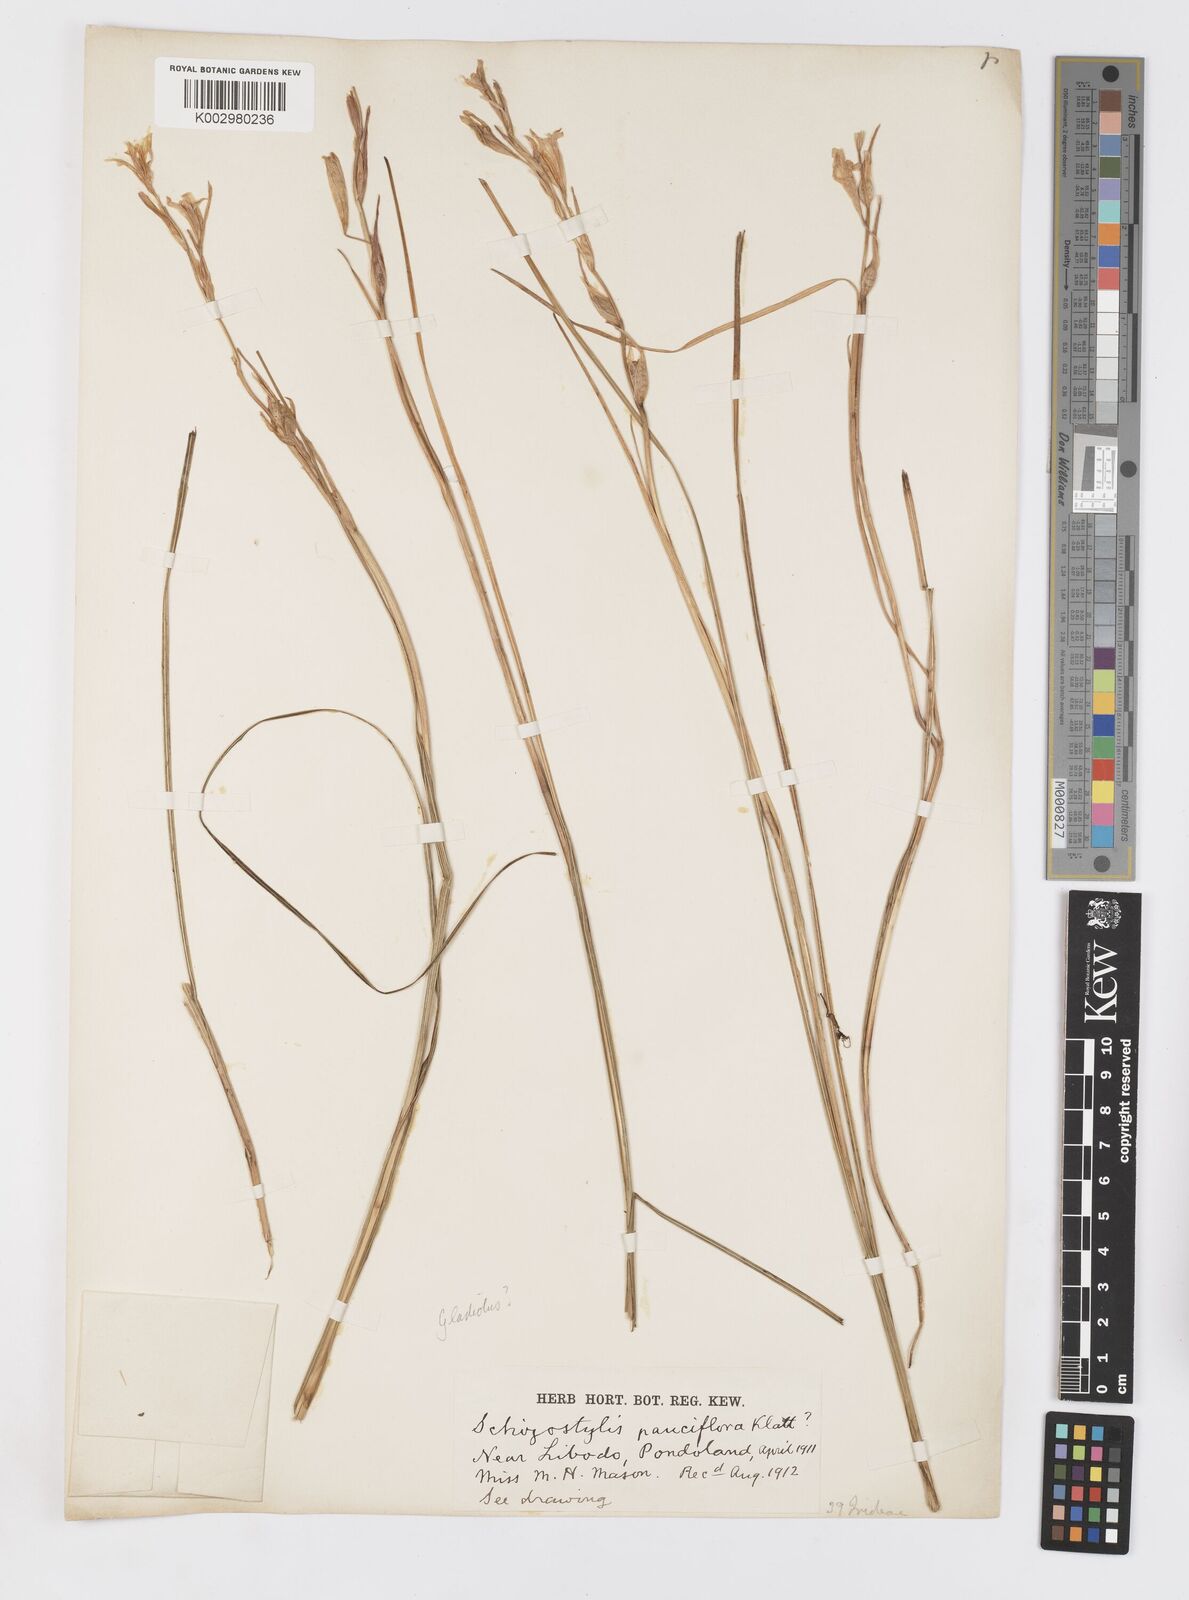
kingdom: Plantae
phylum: Tracheophyta
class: Liliopsida
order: Asparagales
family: Iridaceae
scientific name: Iridaceae
